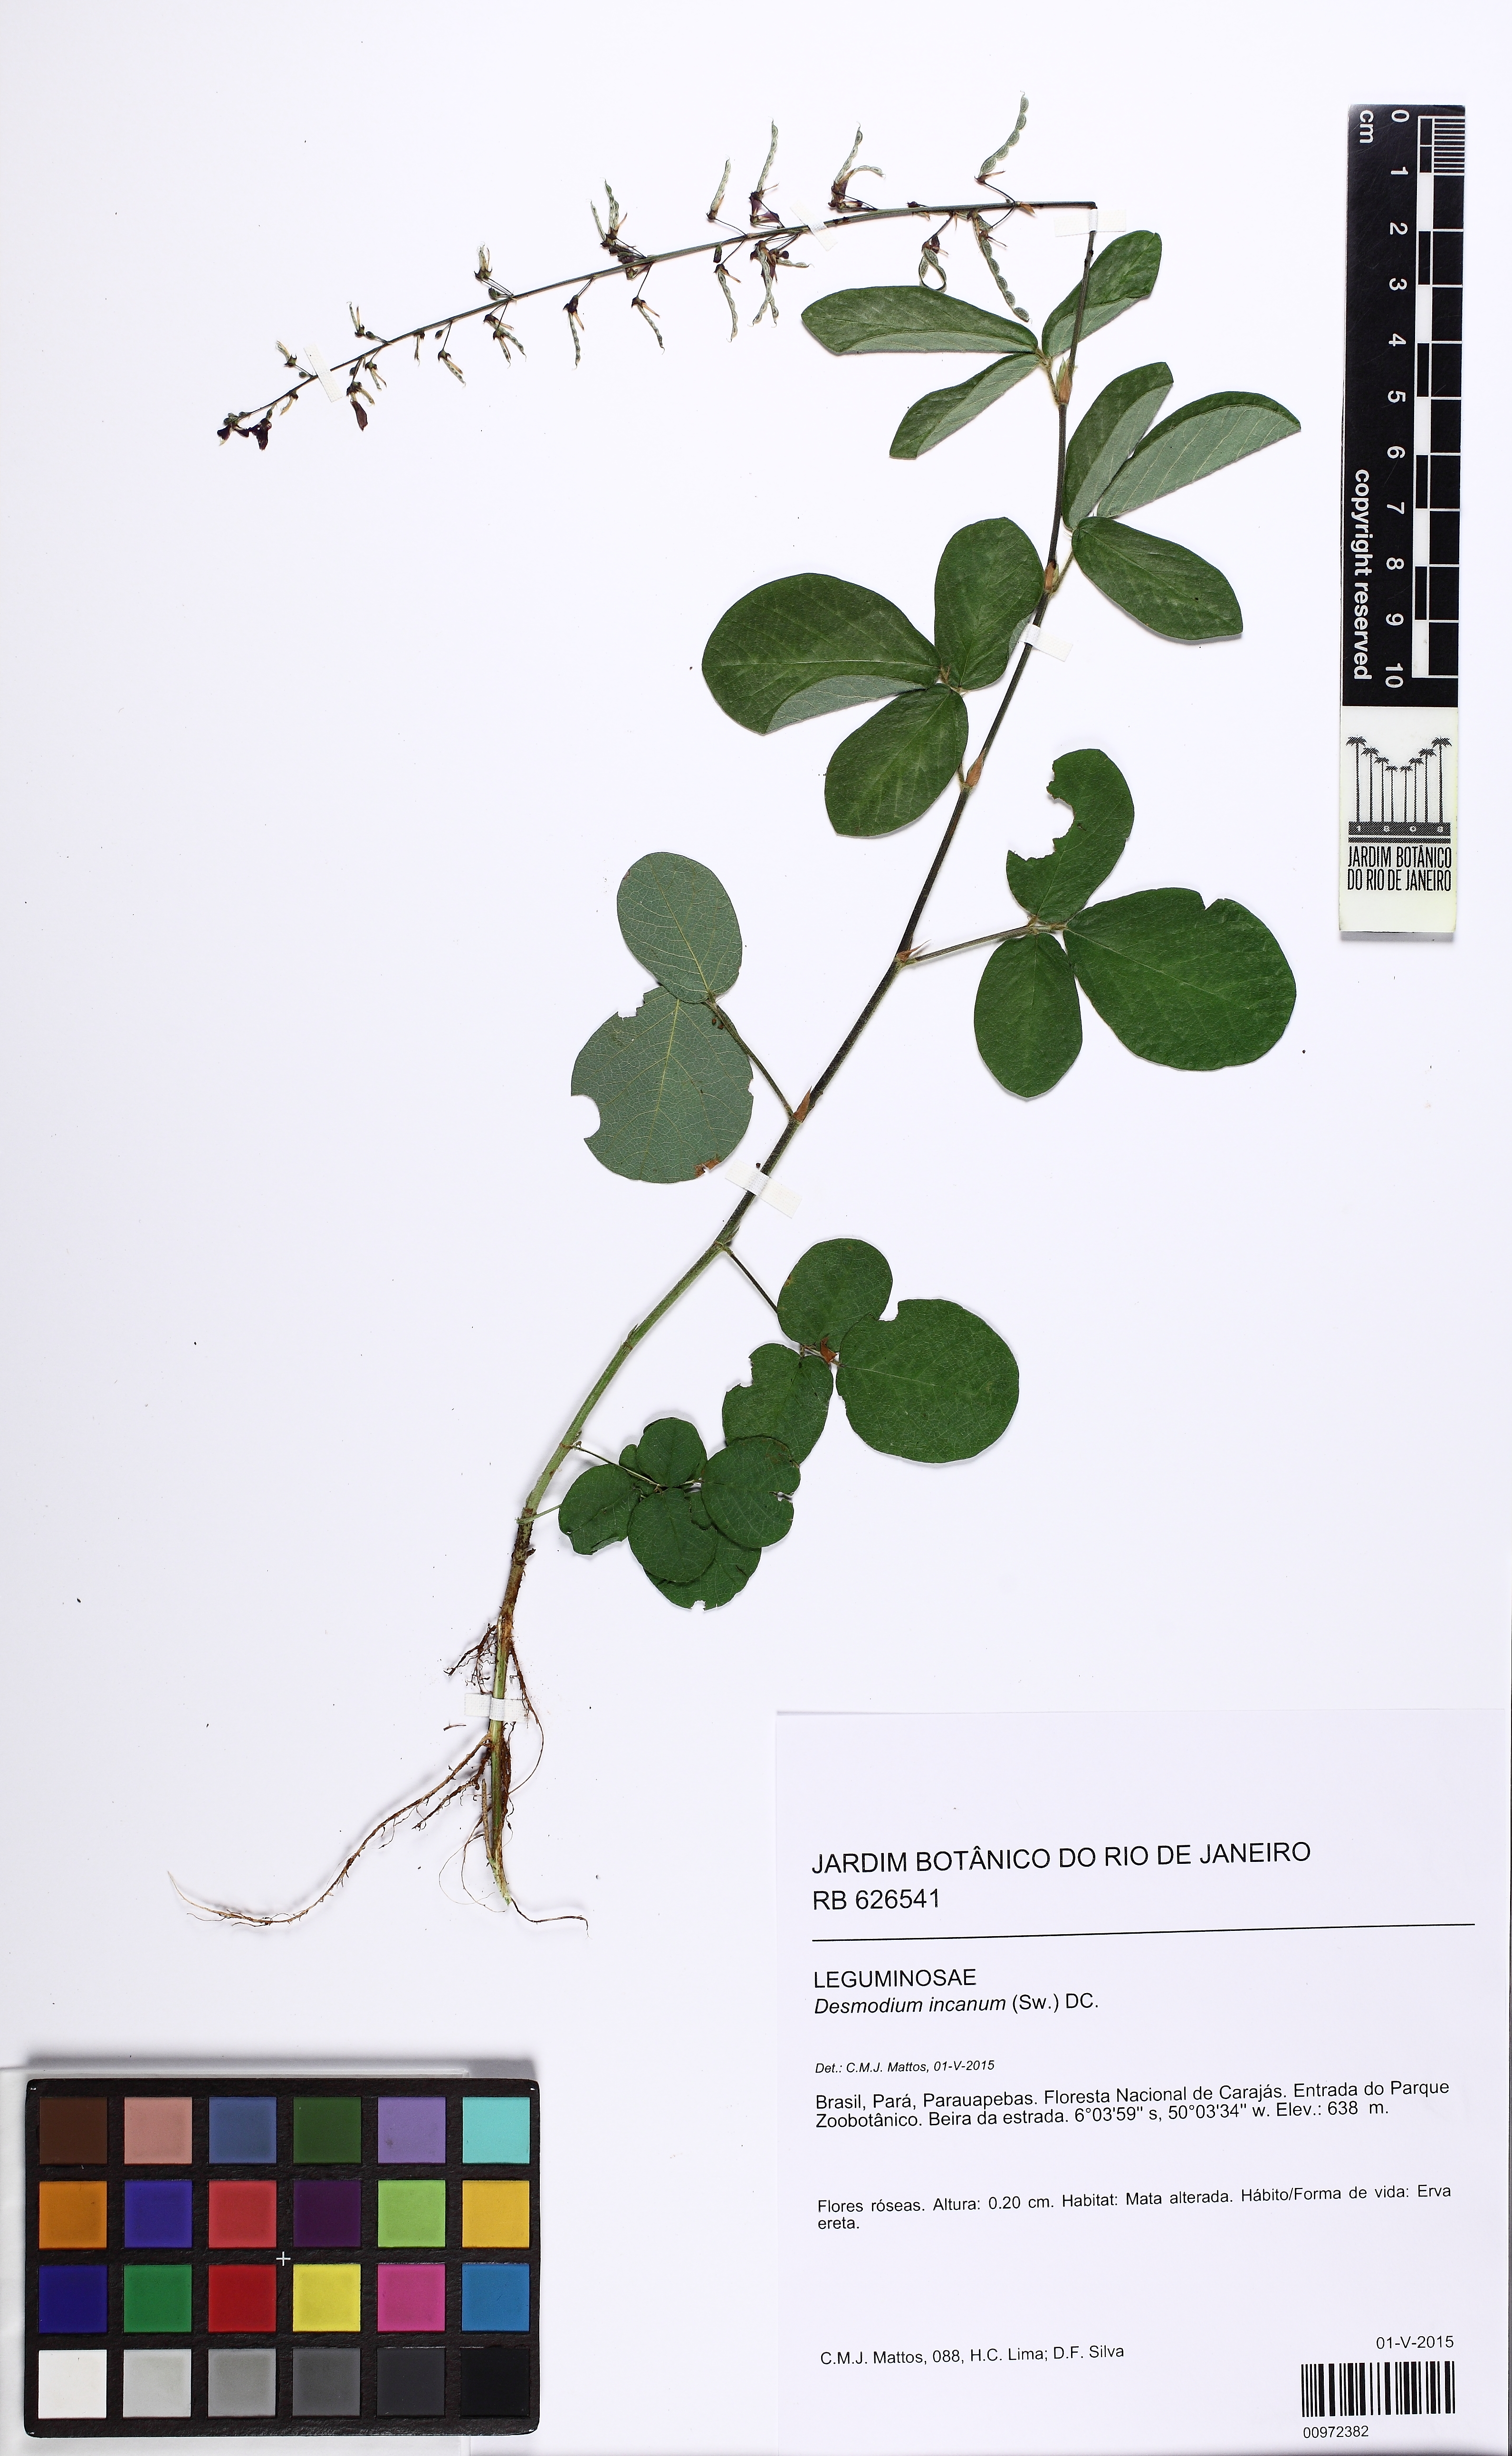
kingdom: Plantae
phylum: Tracheophyta
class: Magnoliopsida
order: Fabales
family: Fabaceae
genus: Desmodium
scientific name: Desmodium incanum
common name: Tickclover
